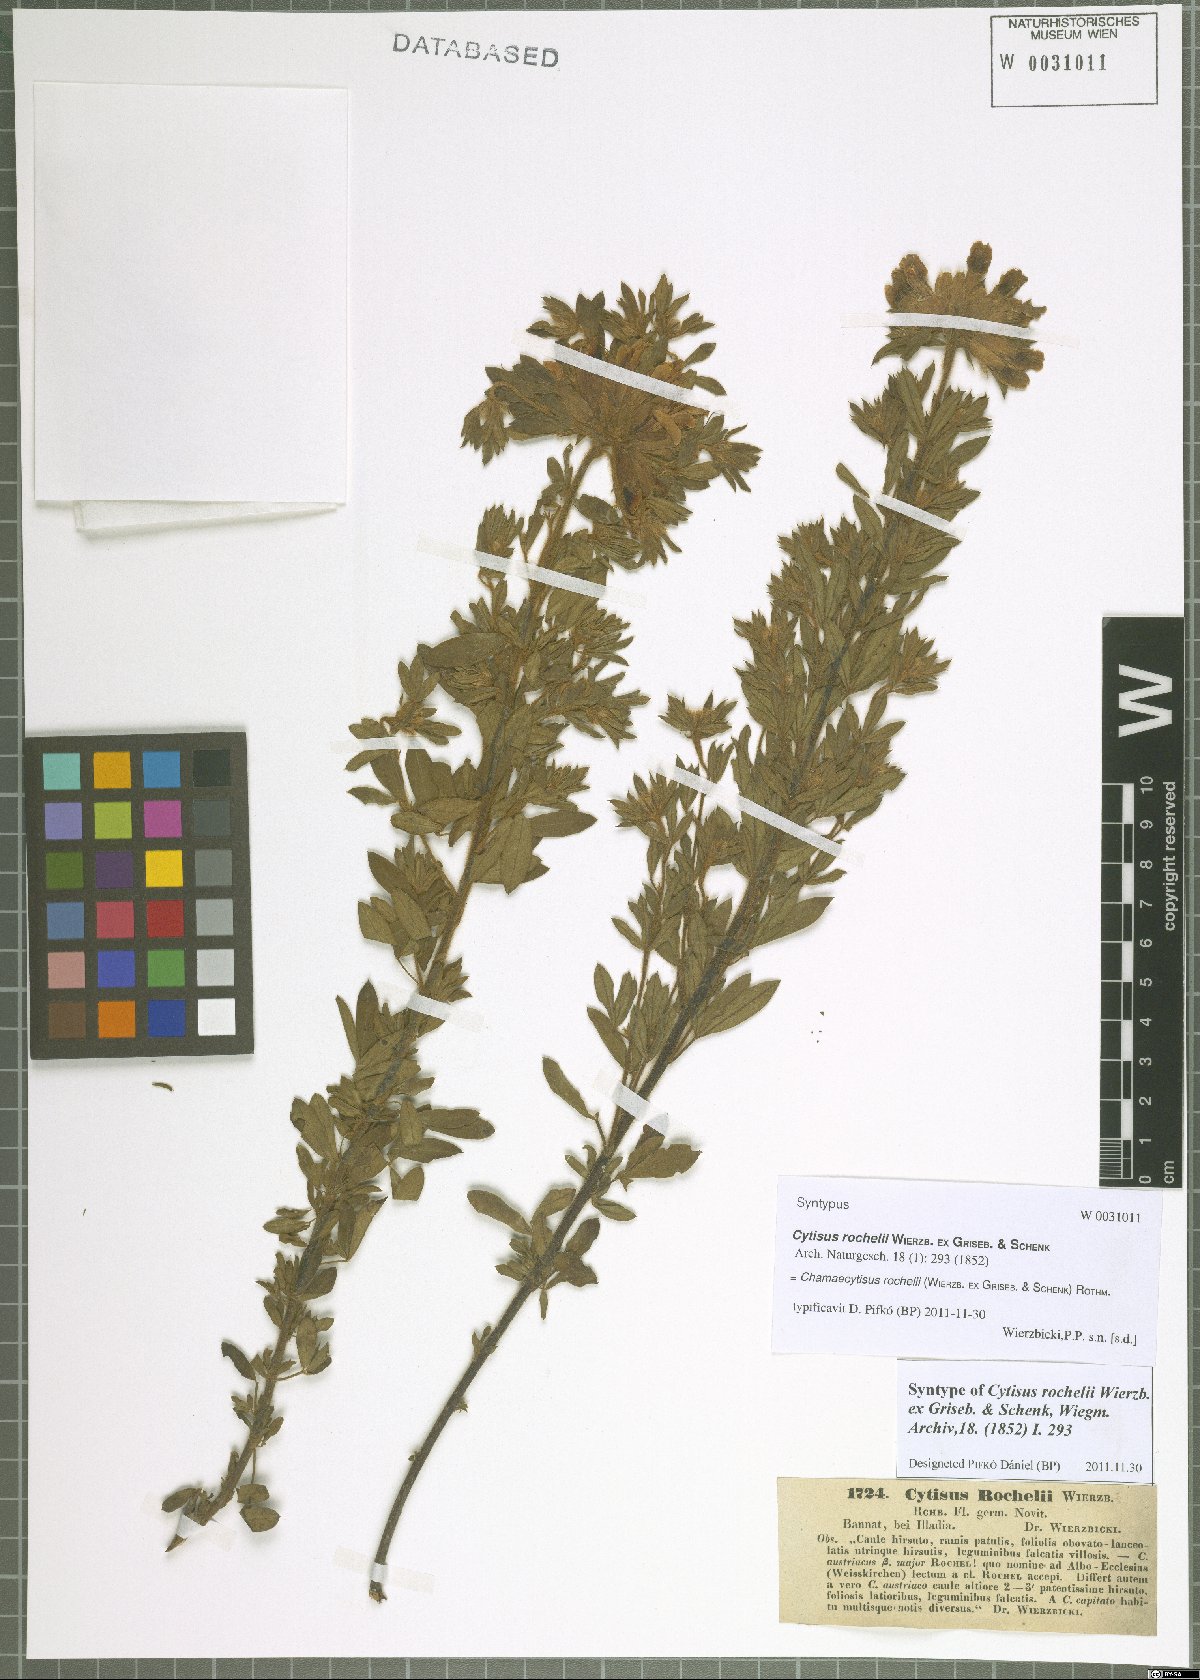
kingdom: Plantae
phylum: Tracheophyta
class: Magnoliopsida
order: Fabales
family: Fabaceae
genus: Chamaecytisus
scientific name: Chamaecytisus rochelii
